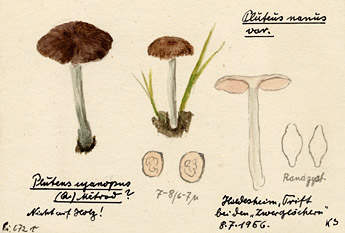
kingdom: Fungi
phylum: Basidiomycota
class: Agaricomycetes
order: Agaricales
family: Pluteaceae
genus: Pluteus
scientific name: Pluteus chrysophaeus
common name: Yellow shield
